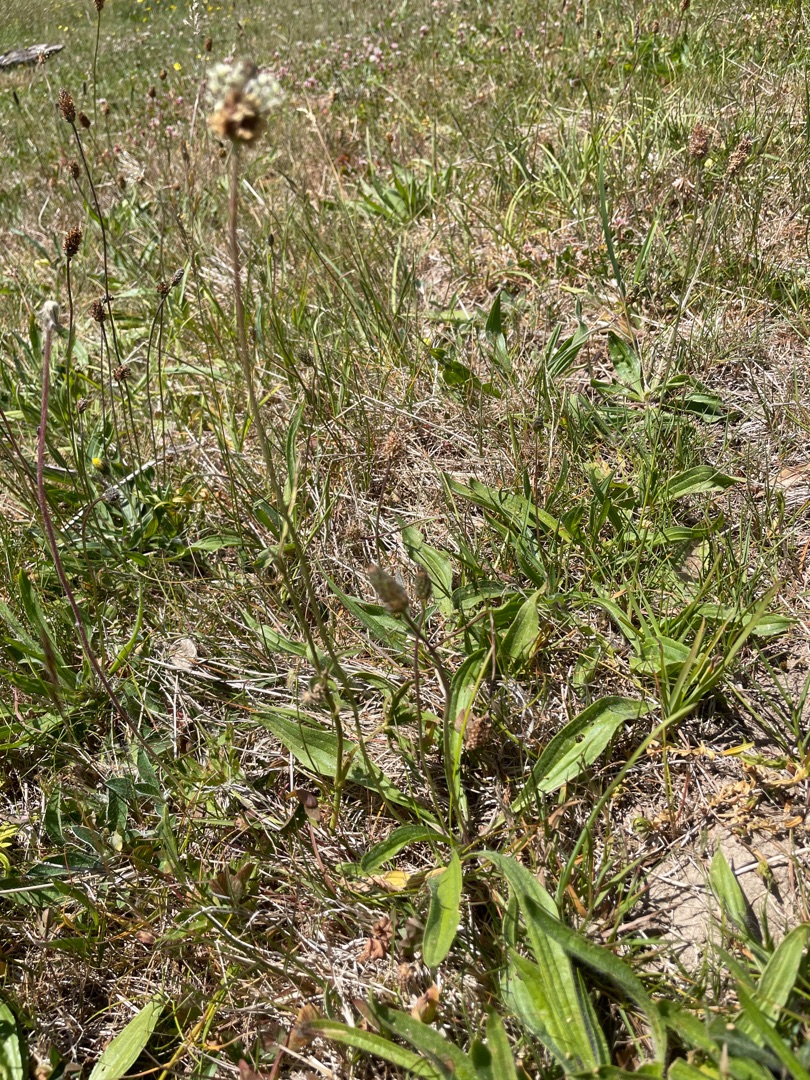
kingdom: Plantae
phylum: Tracheophyta
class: Magnoliopsida
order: Lamiales
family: Plantaginaceae
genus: Plantago
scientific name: Plantago lanceolata
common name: Lancet-vejbred
